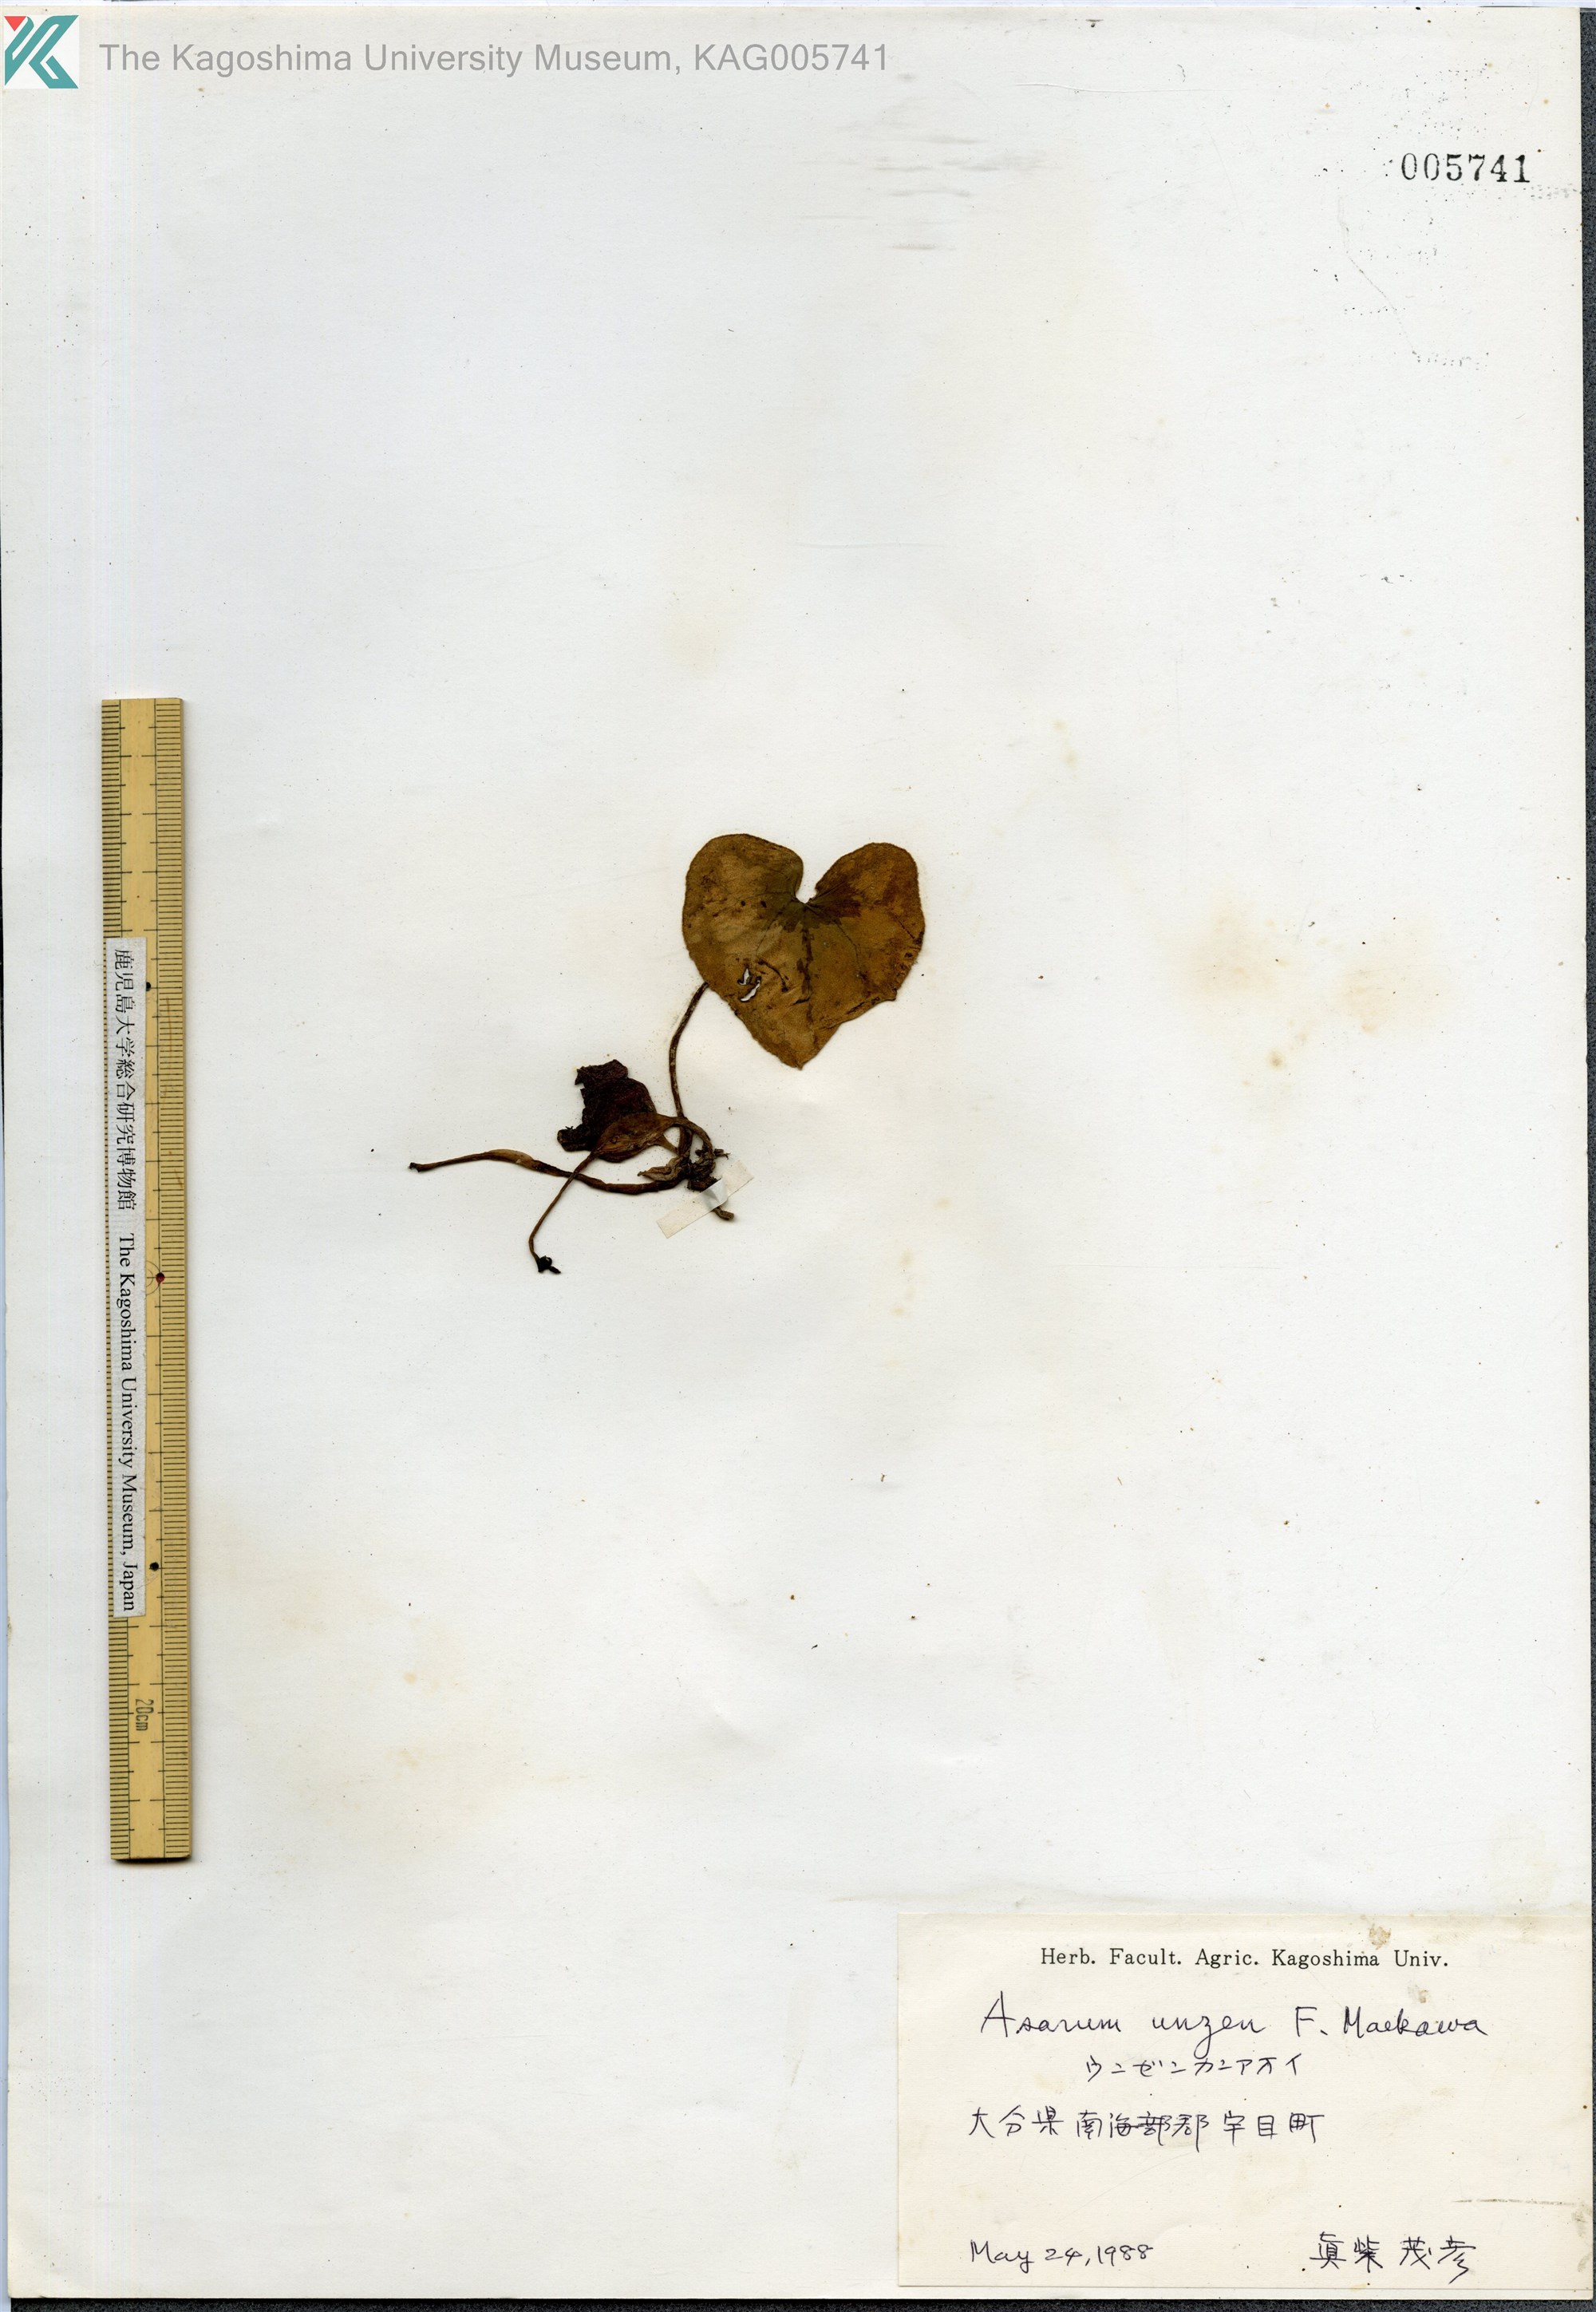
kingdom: Plantae
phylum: Tracheophyta
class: Magnoliopsida
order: Piperales
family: Aristolochiaceae
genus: Asarum
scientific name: Asarum unzen
